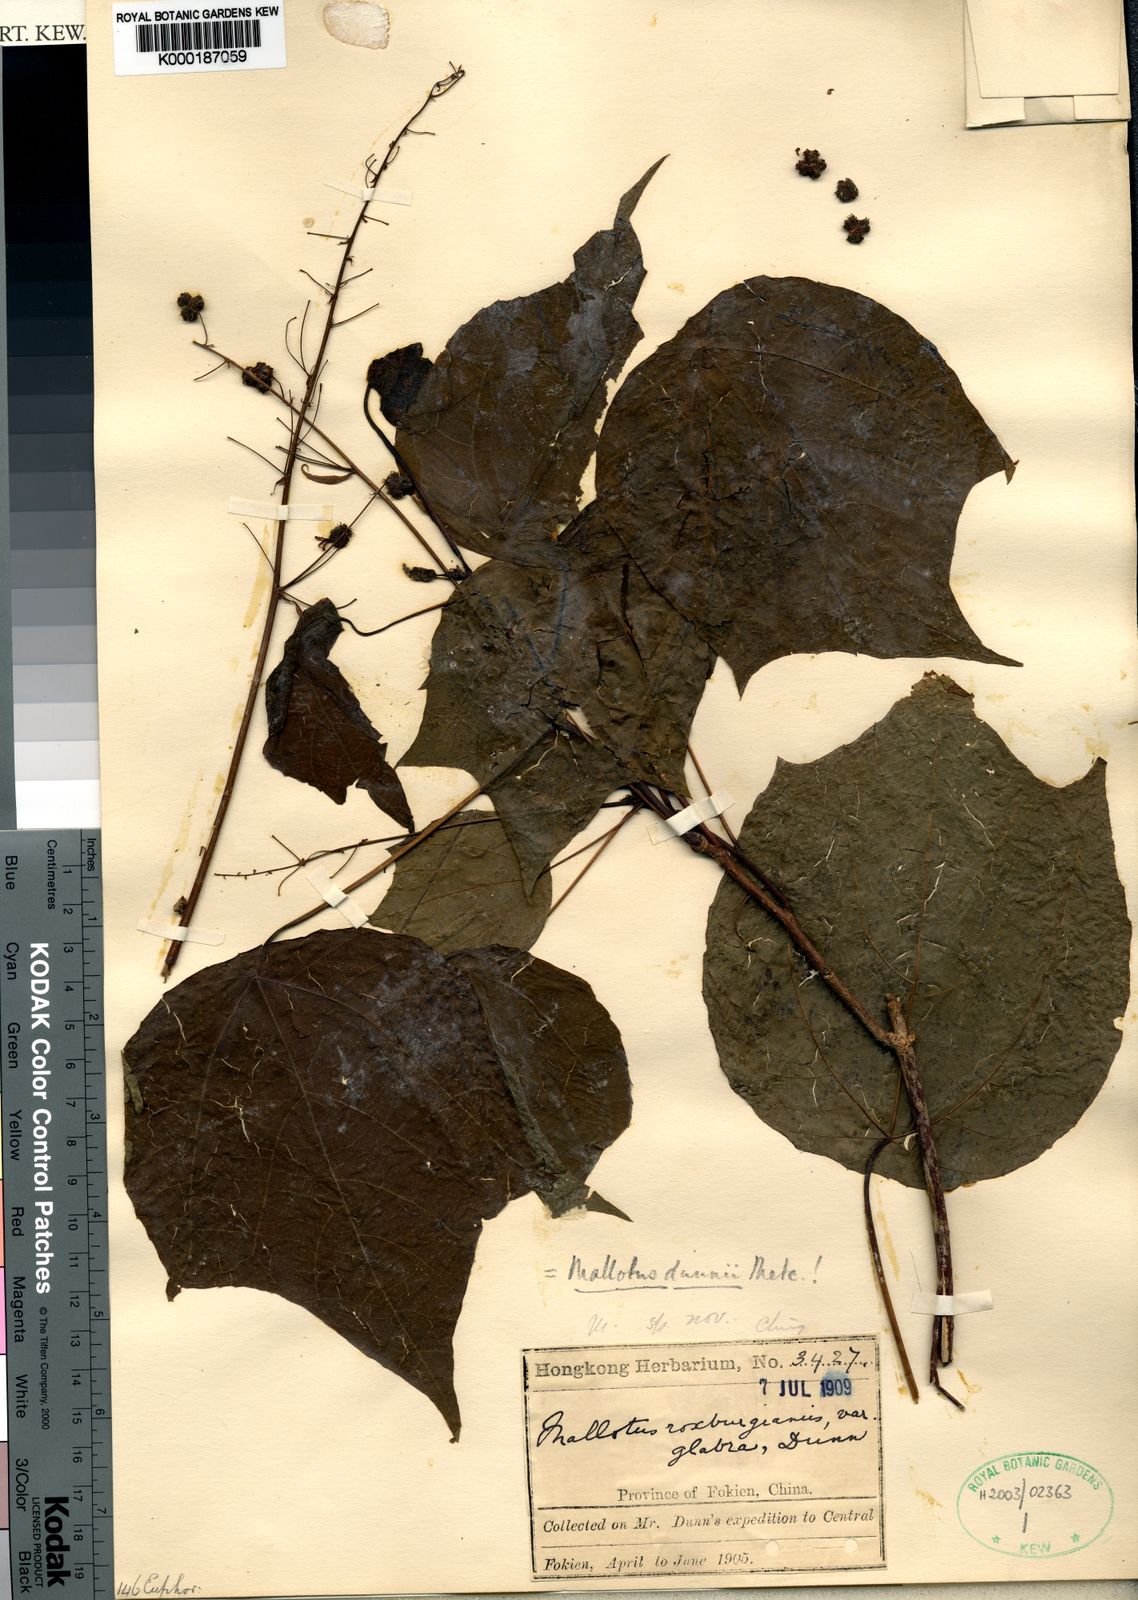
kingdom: Plantae
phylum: Tracheophyta
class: Magnoliopsida
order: Malpighiales
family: Euphorbiaceae
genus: Mallotus
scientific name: Mallotus
